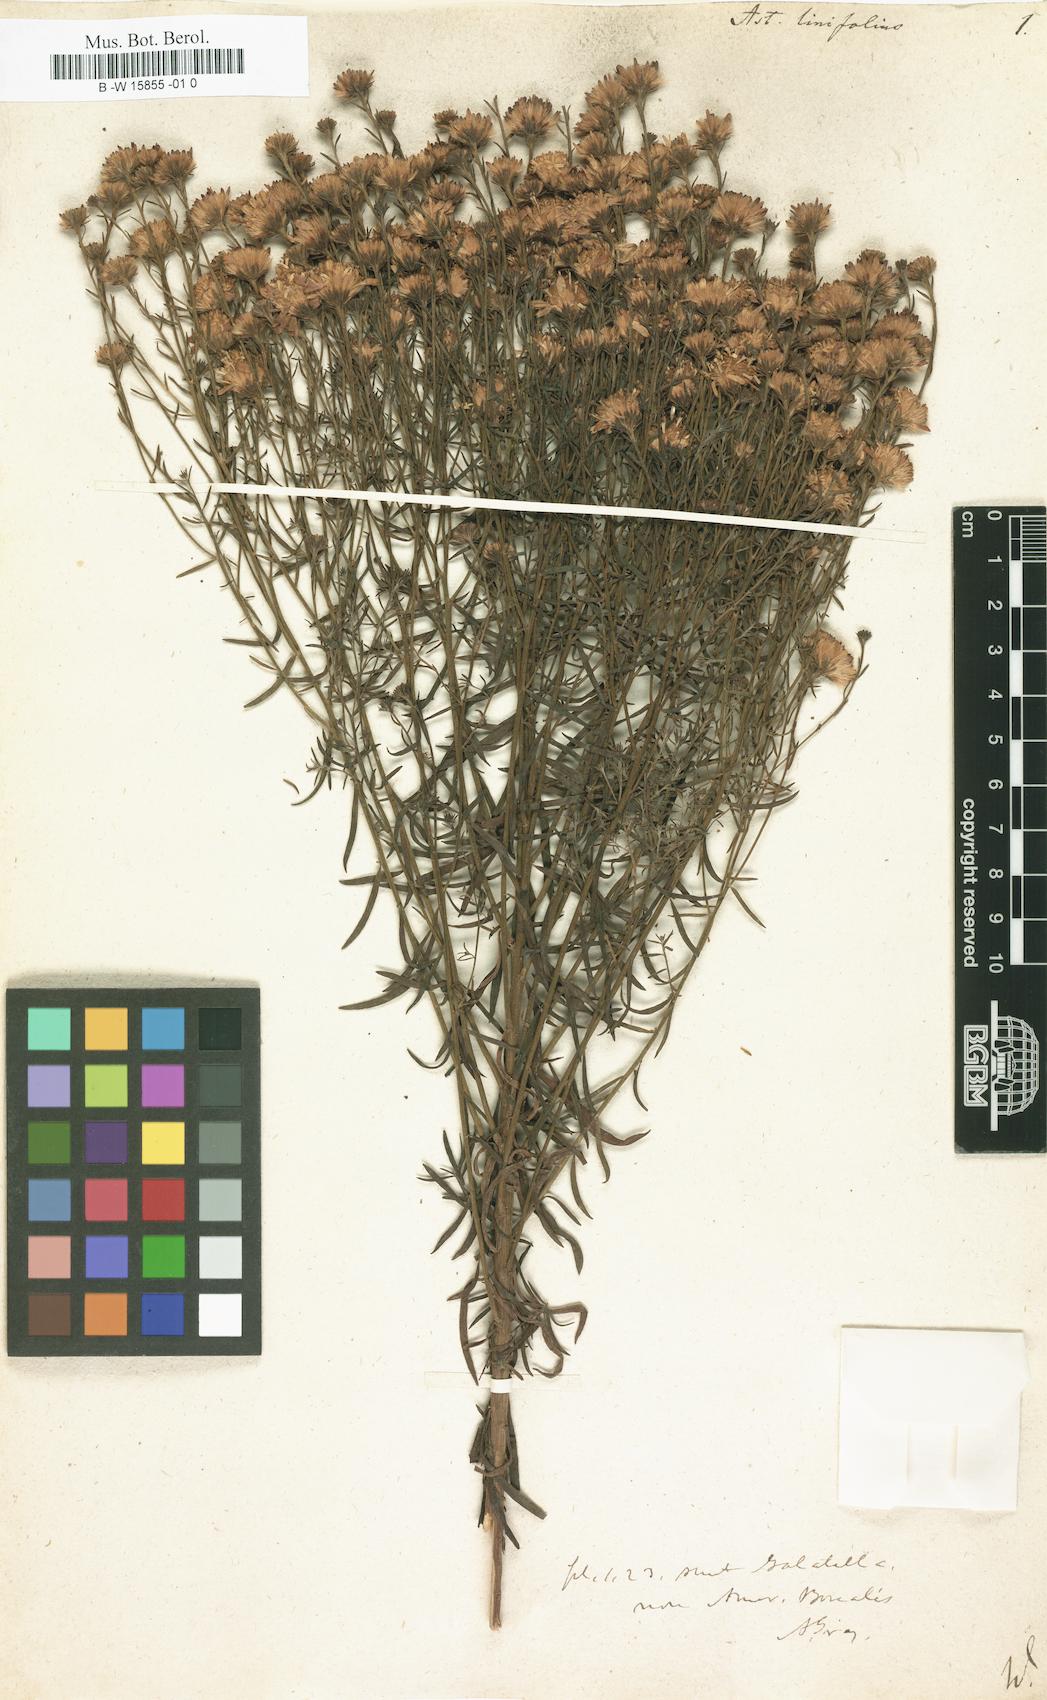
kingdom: Plantae
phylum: Tracheophyta
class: Magnoliopsida
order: Asterales
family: Asteraceae
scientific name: Asteraceae
